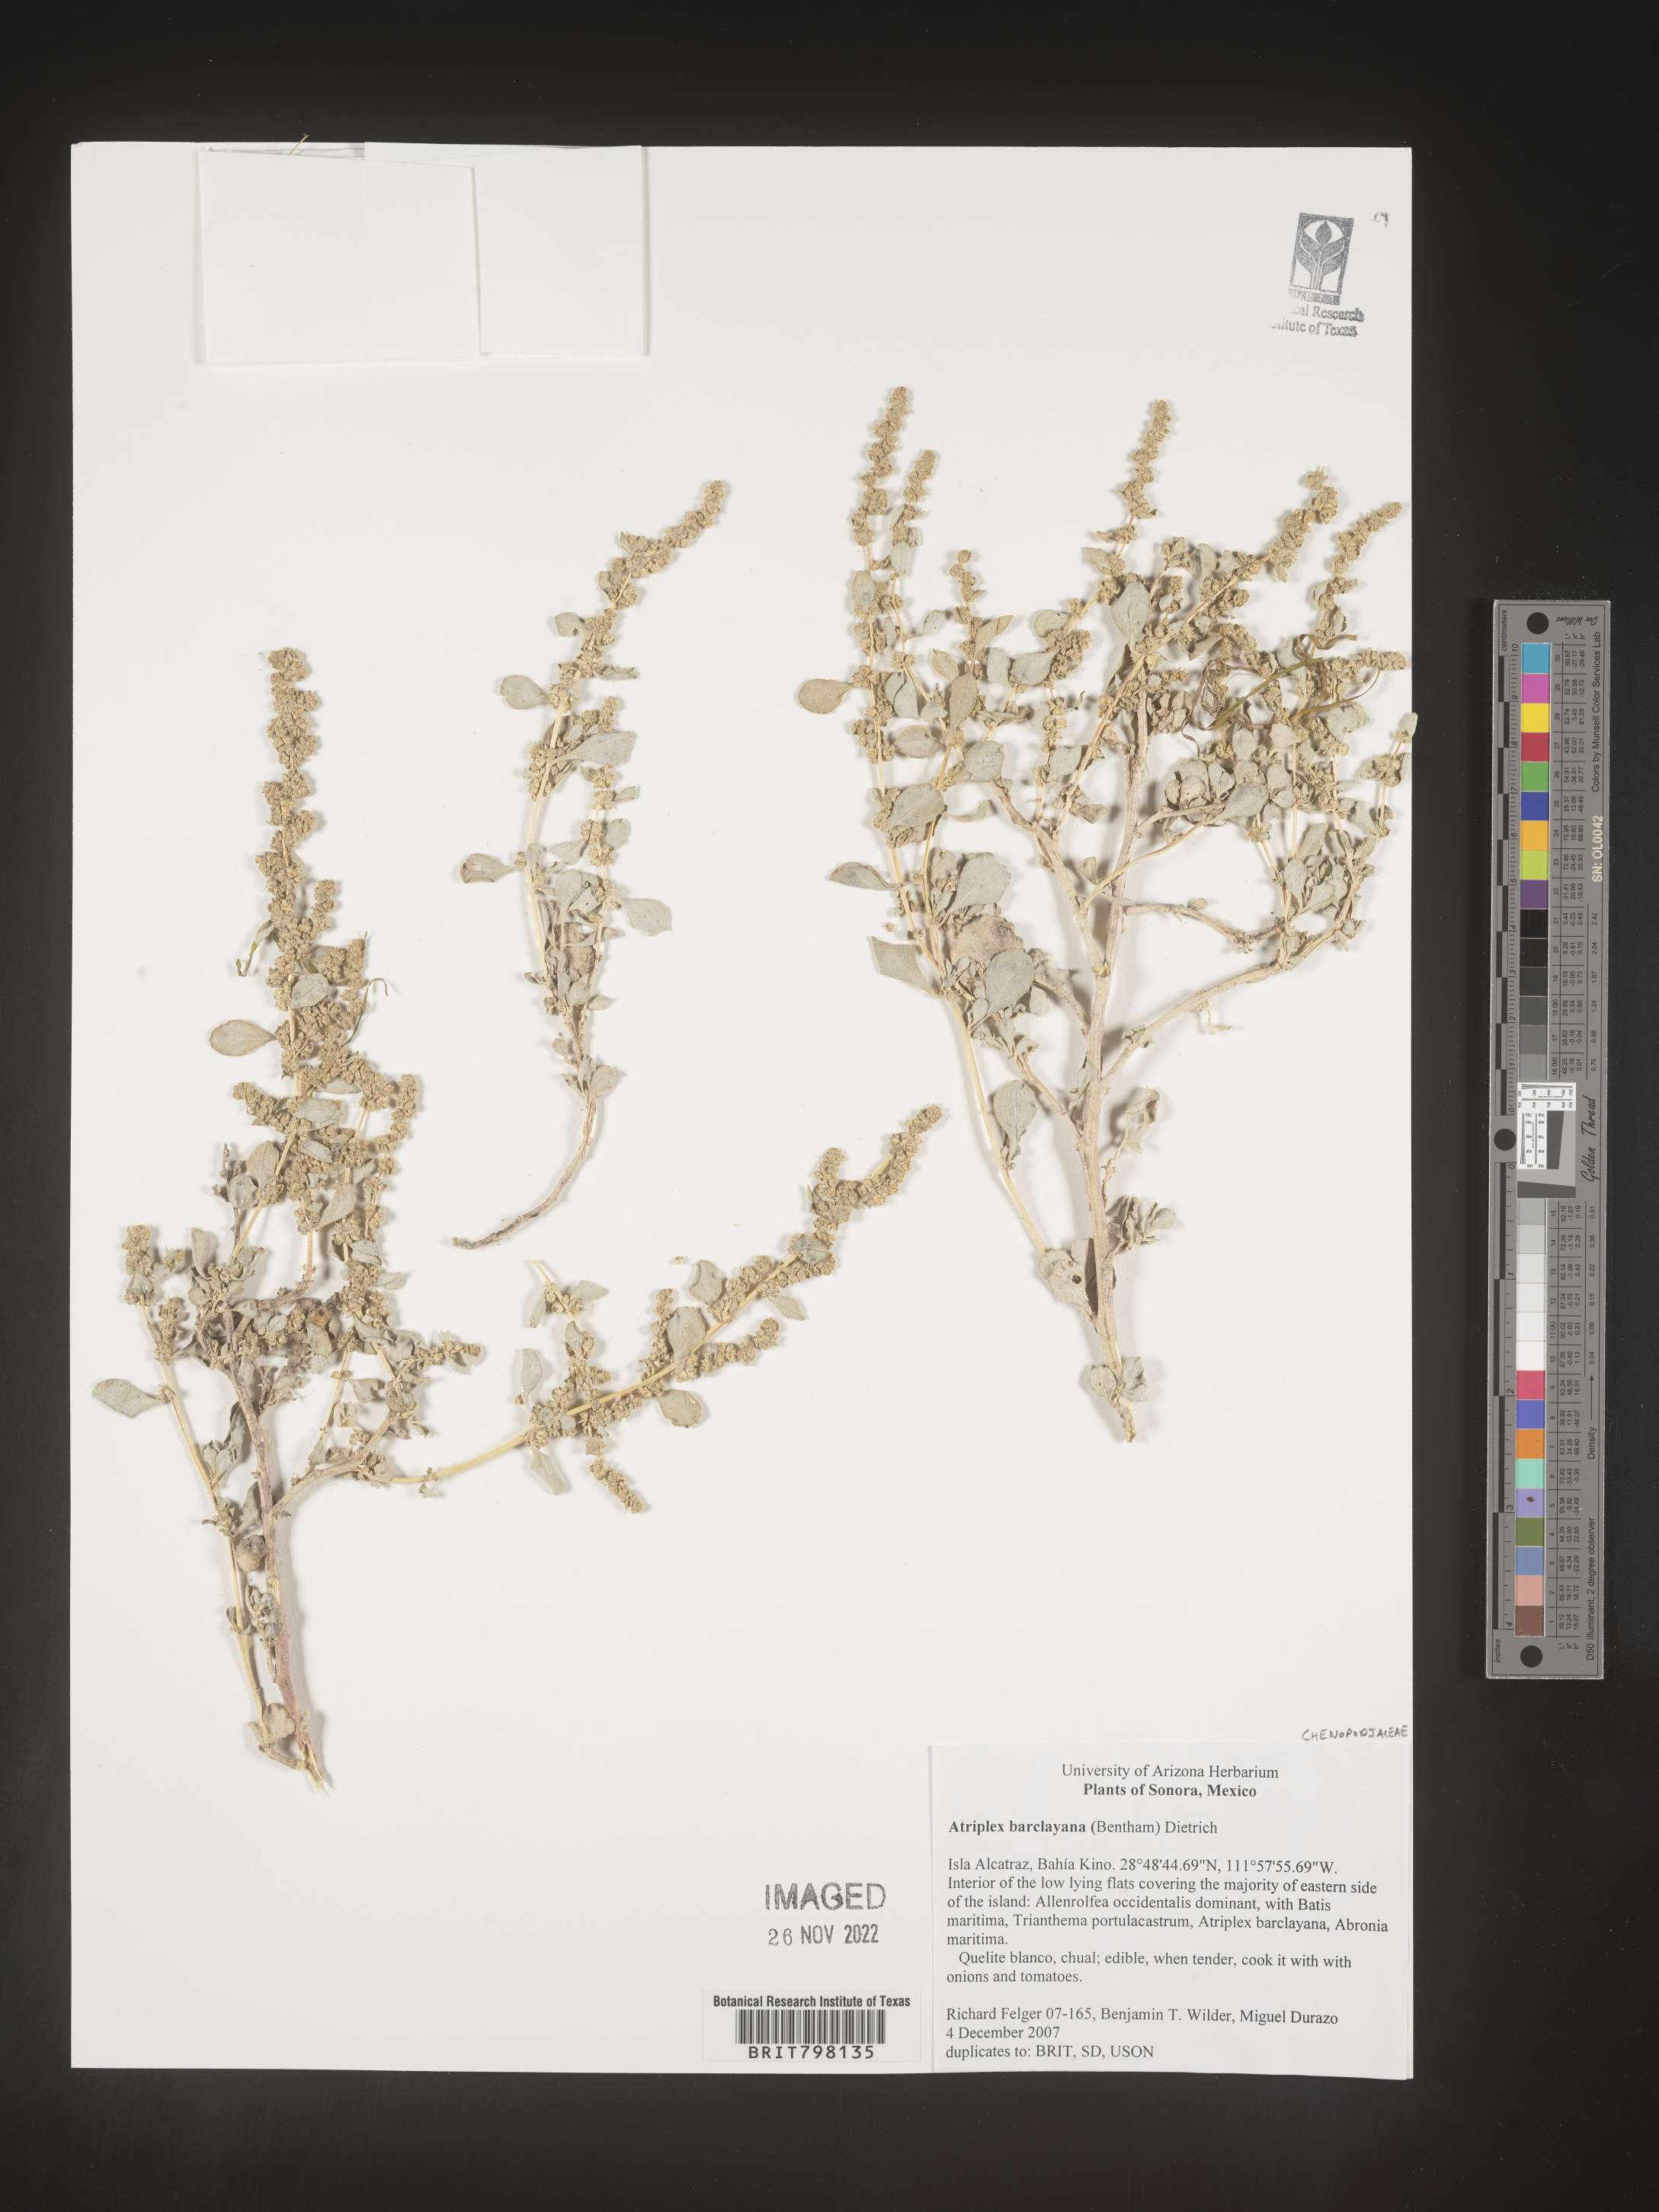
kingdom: Plantae
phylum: Tracheophyta
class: Magnoliopsida
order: Caryophyllales
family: Amaranthaceae
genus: Atriplex
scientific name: Atriplex
